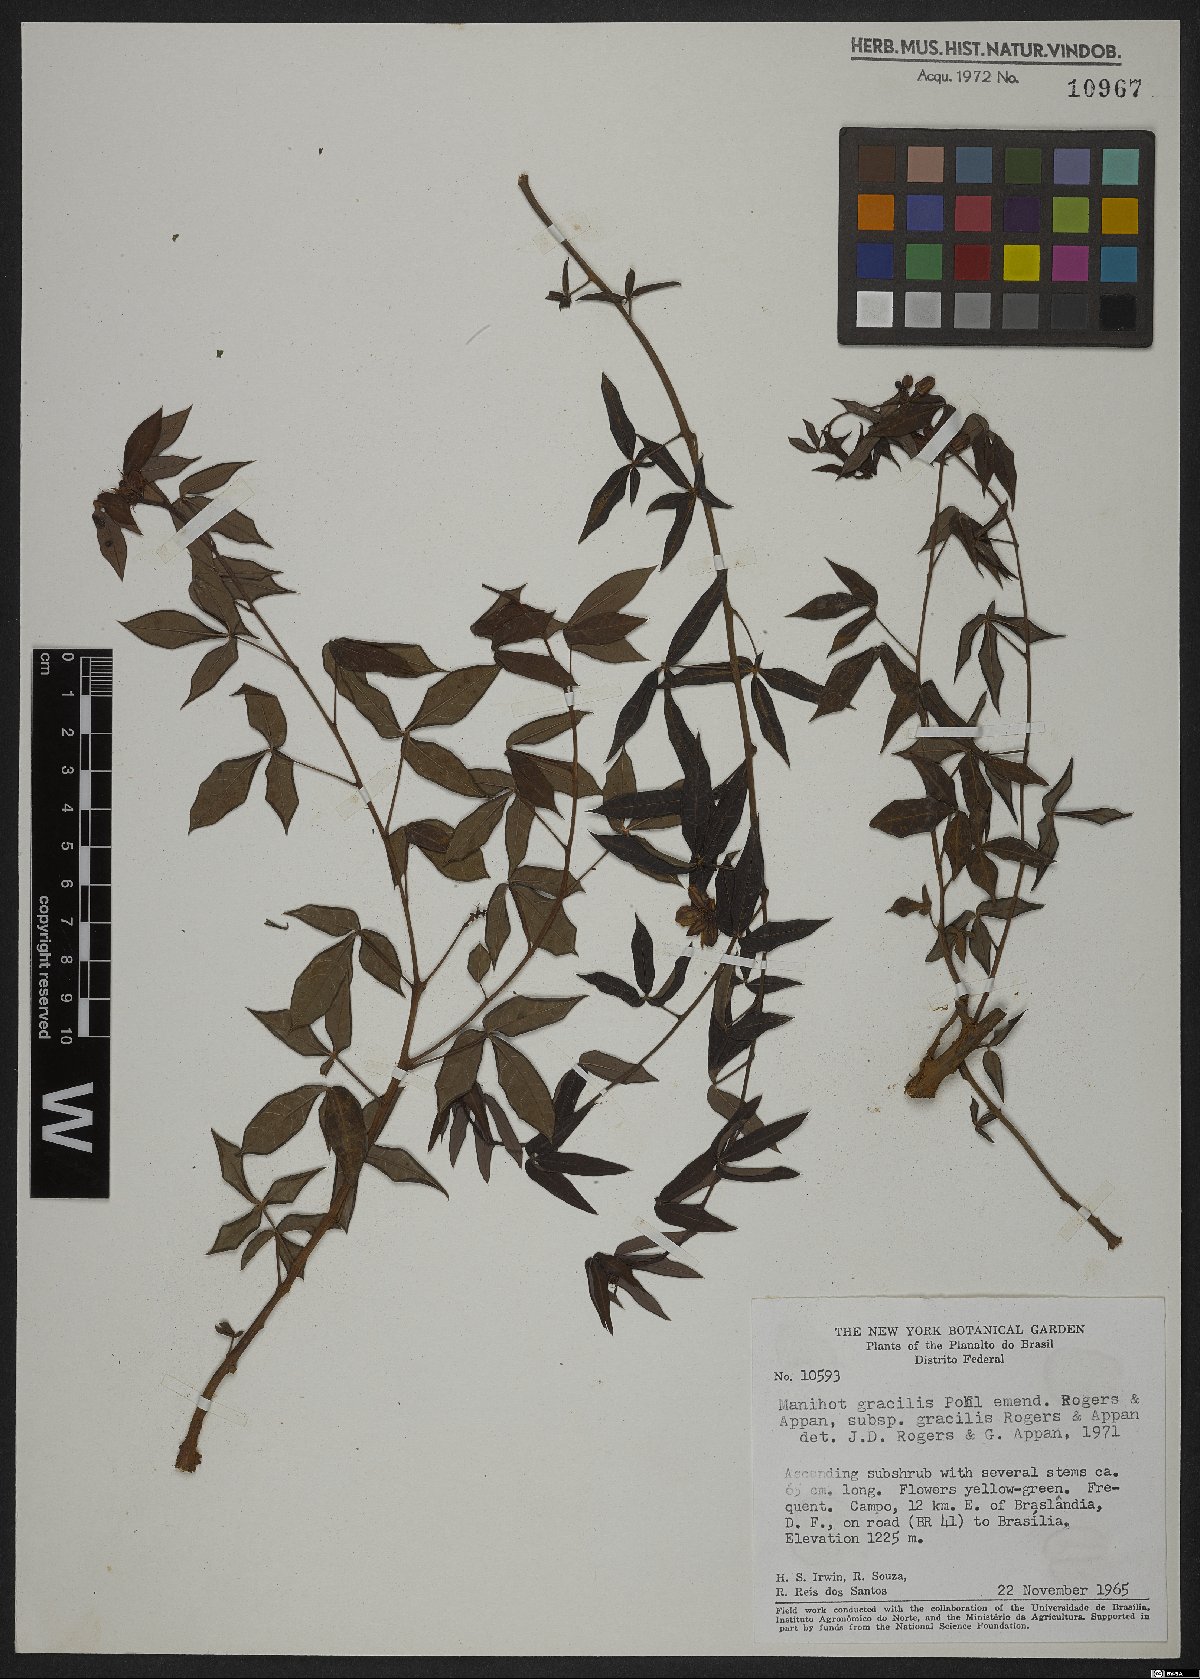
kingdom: Plantae
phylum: Tracheophyta
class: Magnoliopsida
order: Malpighiales
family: Euphorbiaceae
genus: Manihot
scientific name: Manihot gracilis
